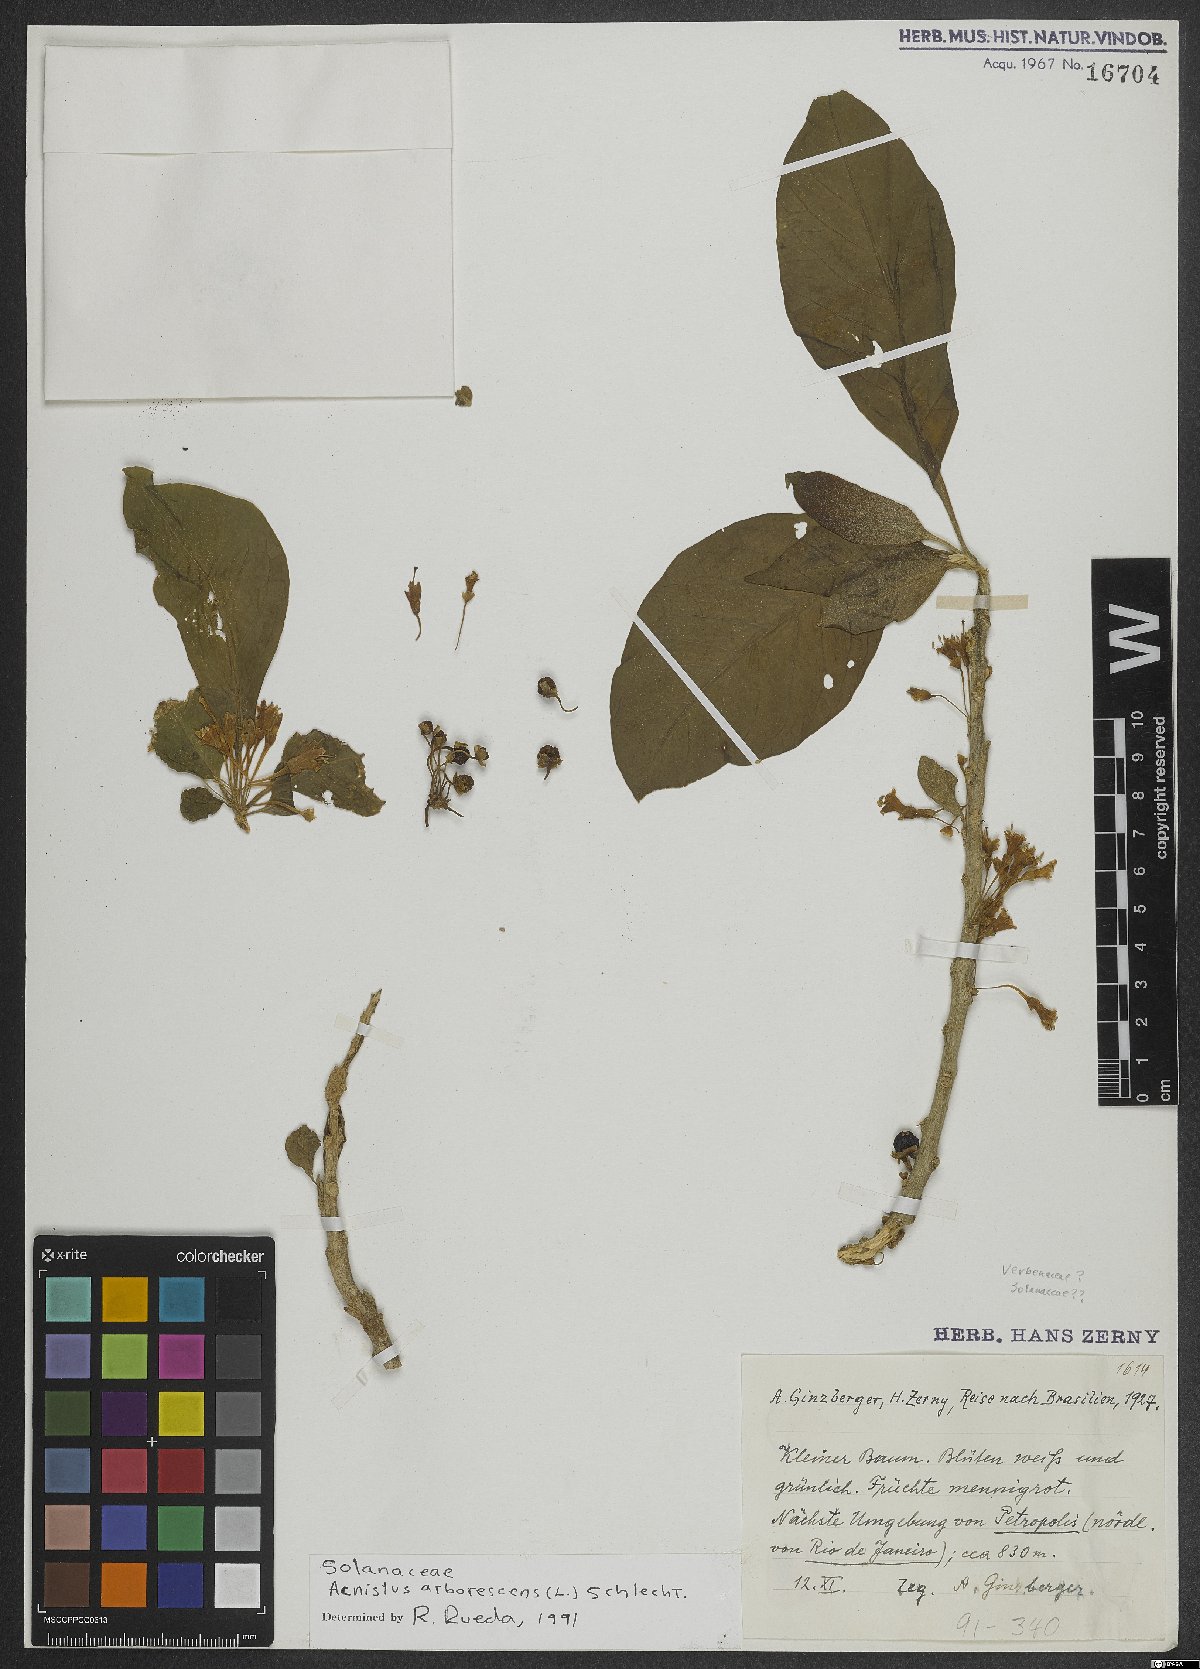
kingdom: Plantae
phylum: Tracheophyta
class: Magnoliopsida
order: Solanales
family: Solanaceae
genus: Iochroma
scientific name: Iochroma arborescens
